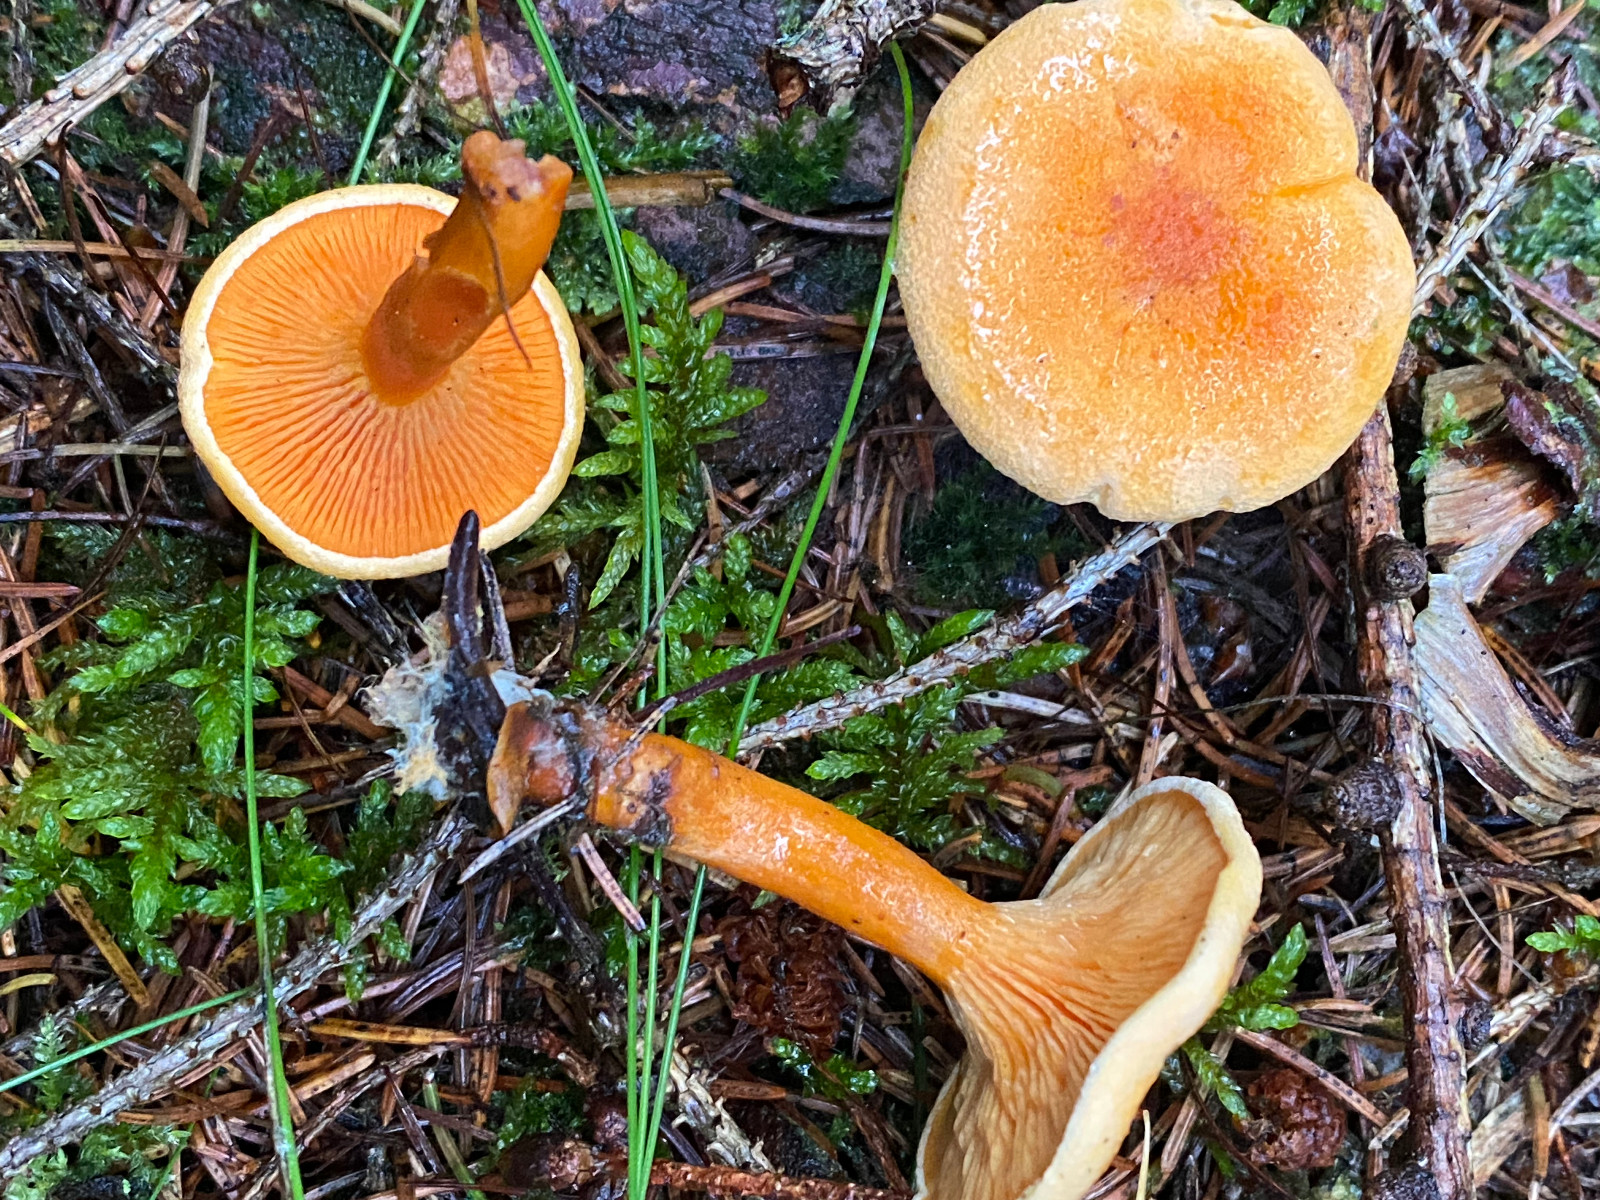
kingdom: Fungi
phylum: Basidiomycota
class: Agaricomycetes
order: Boletales
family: Hygrophoropsidaceae
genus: Hygrophoropsis
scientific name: Hygrophoropsis aurantiaca
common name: almindelig orangekantarel
